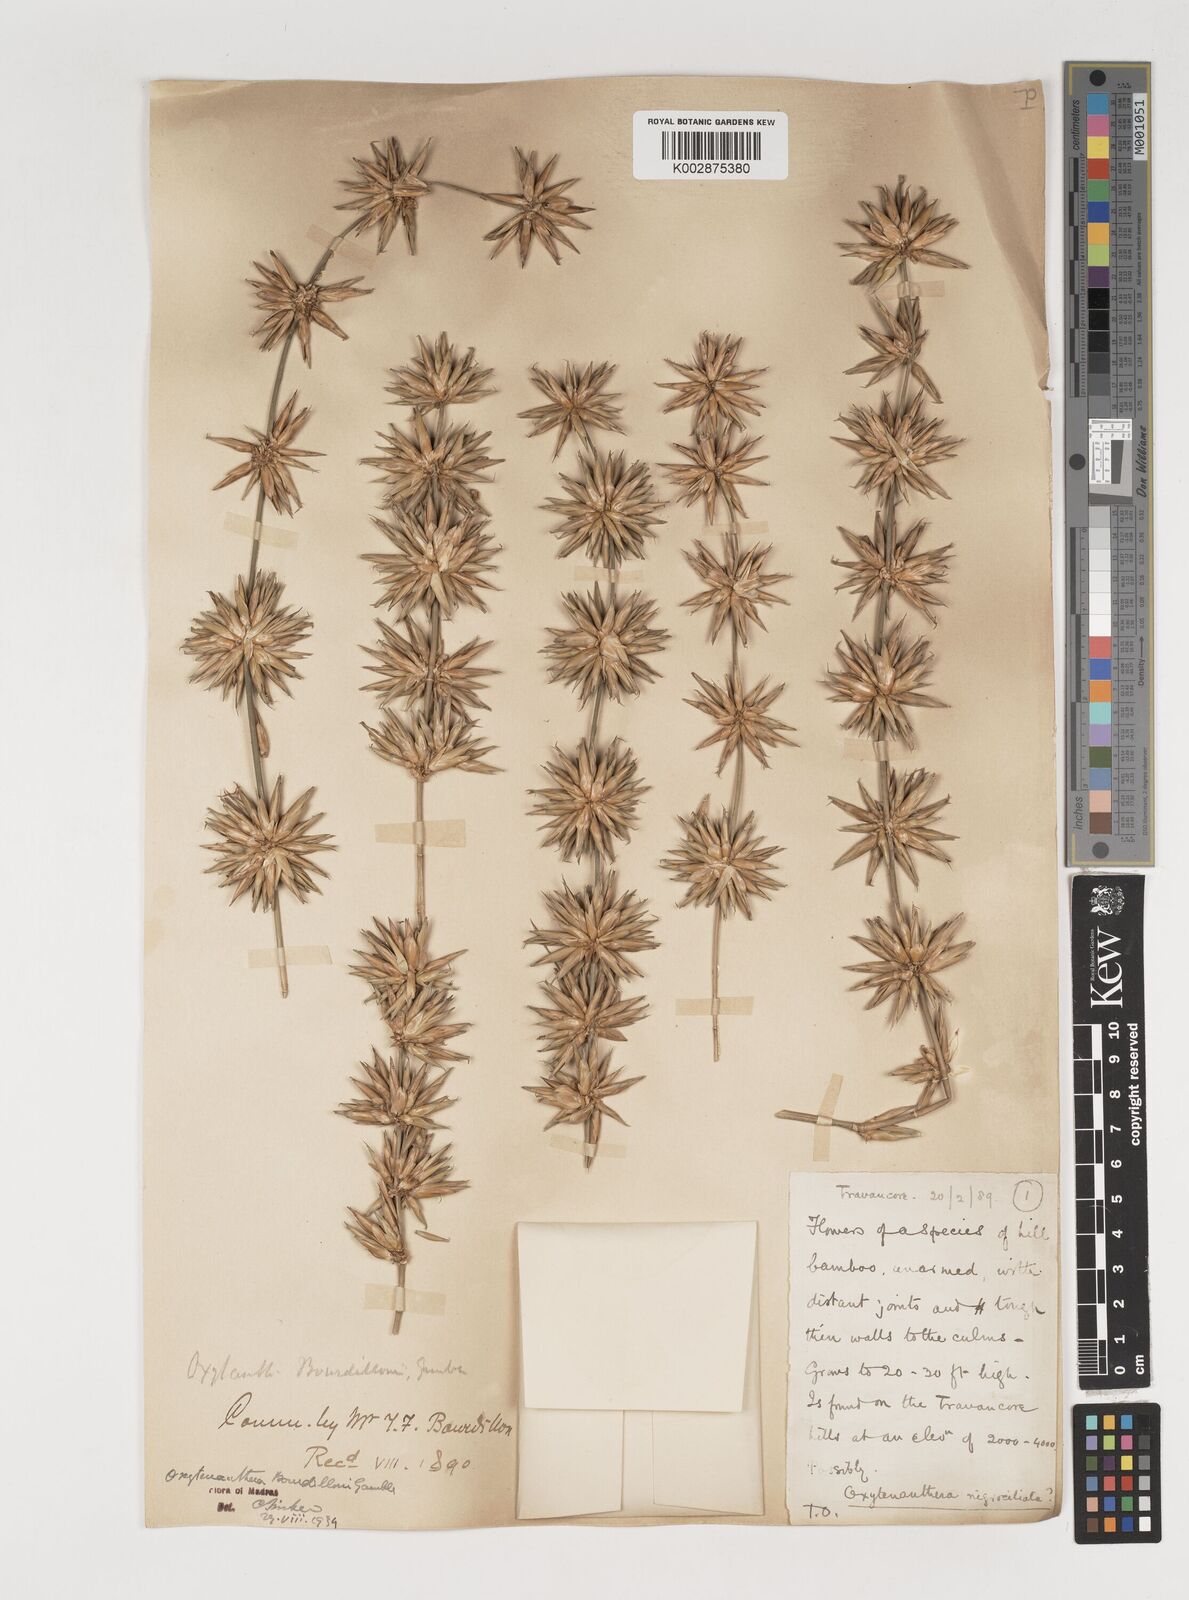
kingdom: Plantae
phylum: Tracheophyta
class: Liliopsida
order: Poales
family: Poaceae
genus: Dendrocalamus
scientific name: Dendrocalamus
